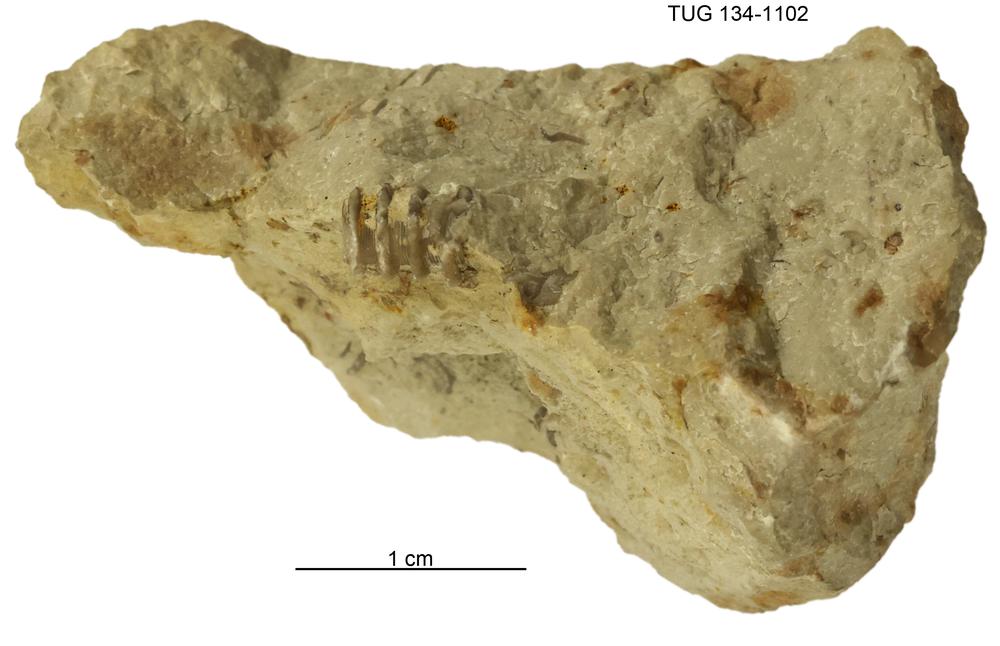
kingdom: Animalia
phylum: Mollusca
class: Cricoconarida
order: Tentaculitida
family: Tentaculitidae
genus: Tentaculites
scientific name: Tentaculites
